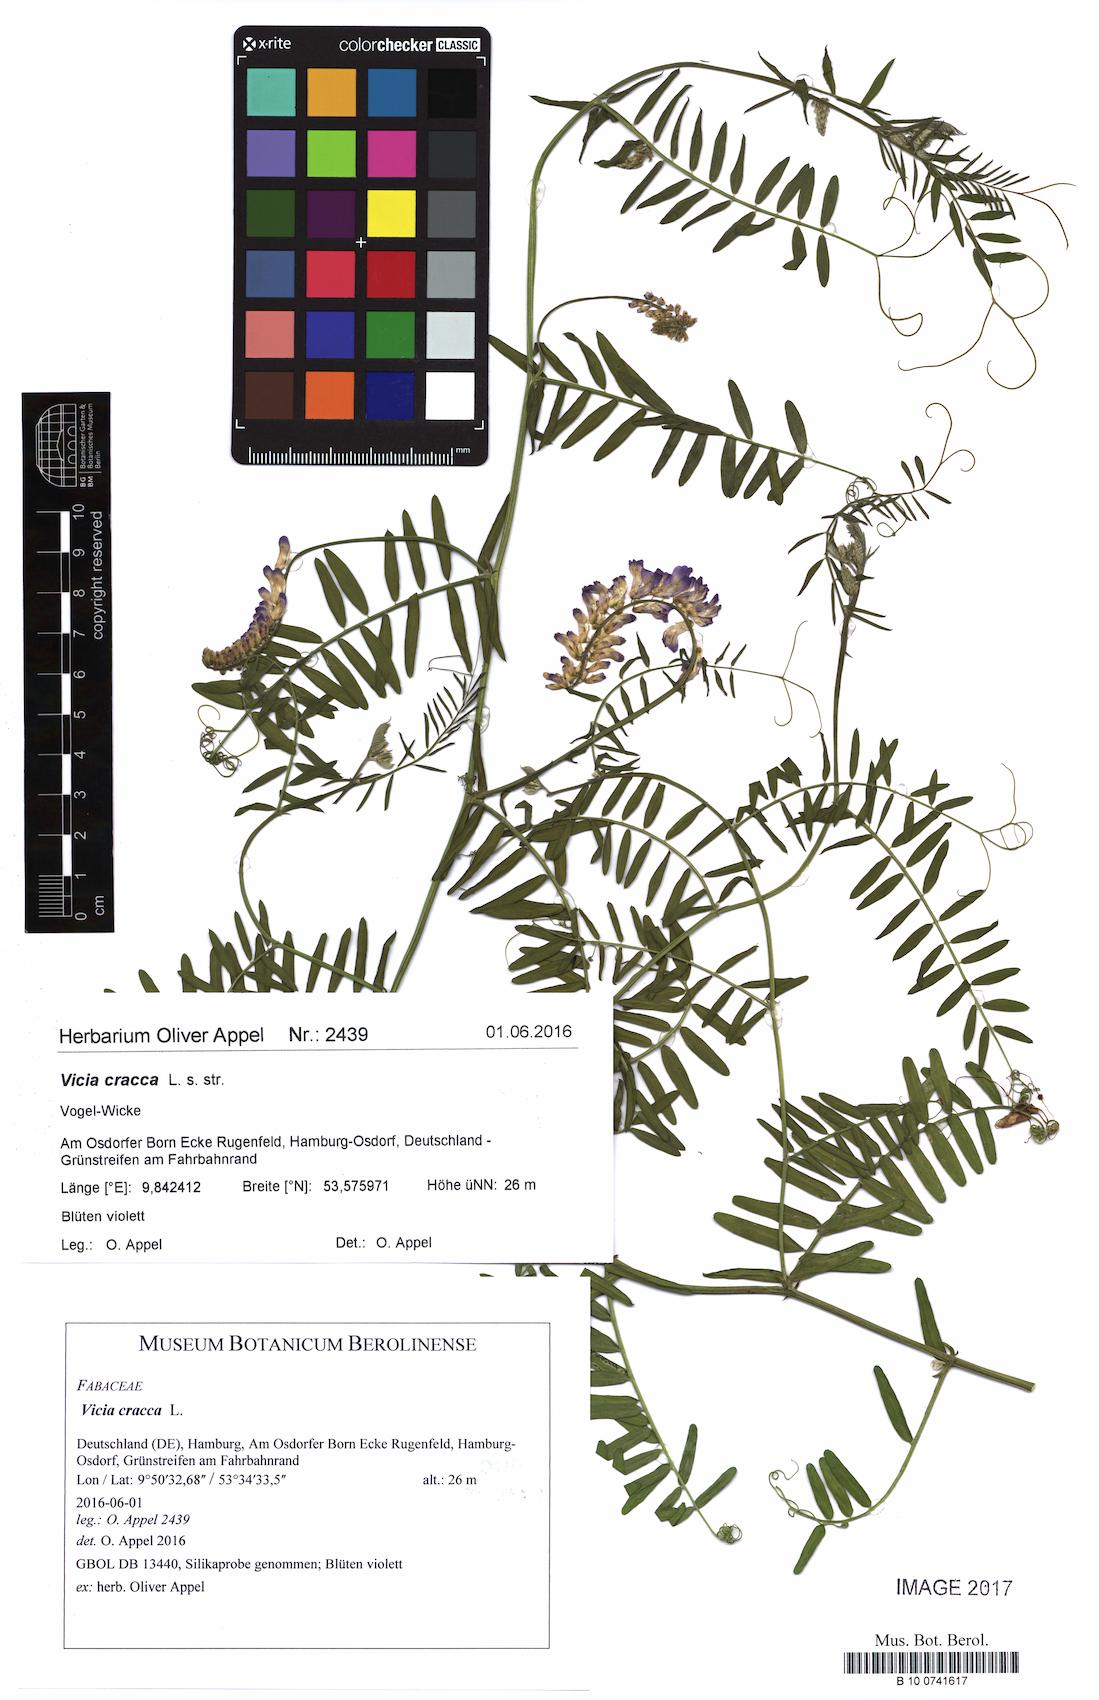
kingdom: Plantae
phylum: Tracheophyta
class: Magnoliopsida
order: Fabales
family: Fabaceae
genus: Vicia
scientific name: Vicia cracca
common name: Bird vetch
